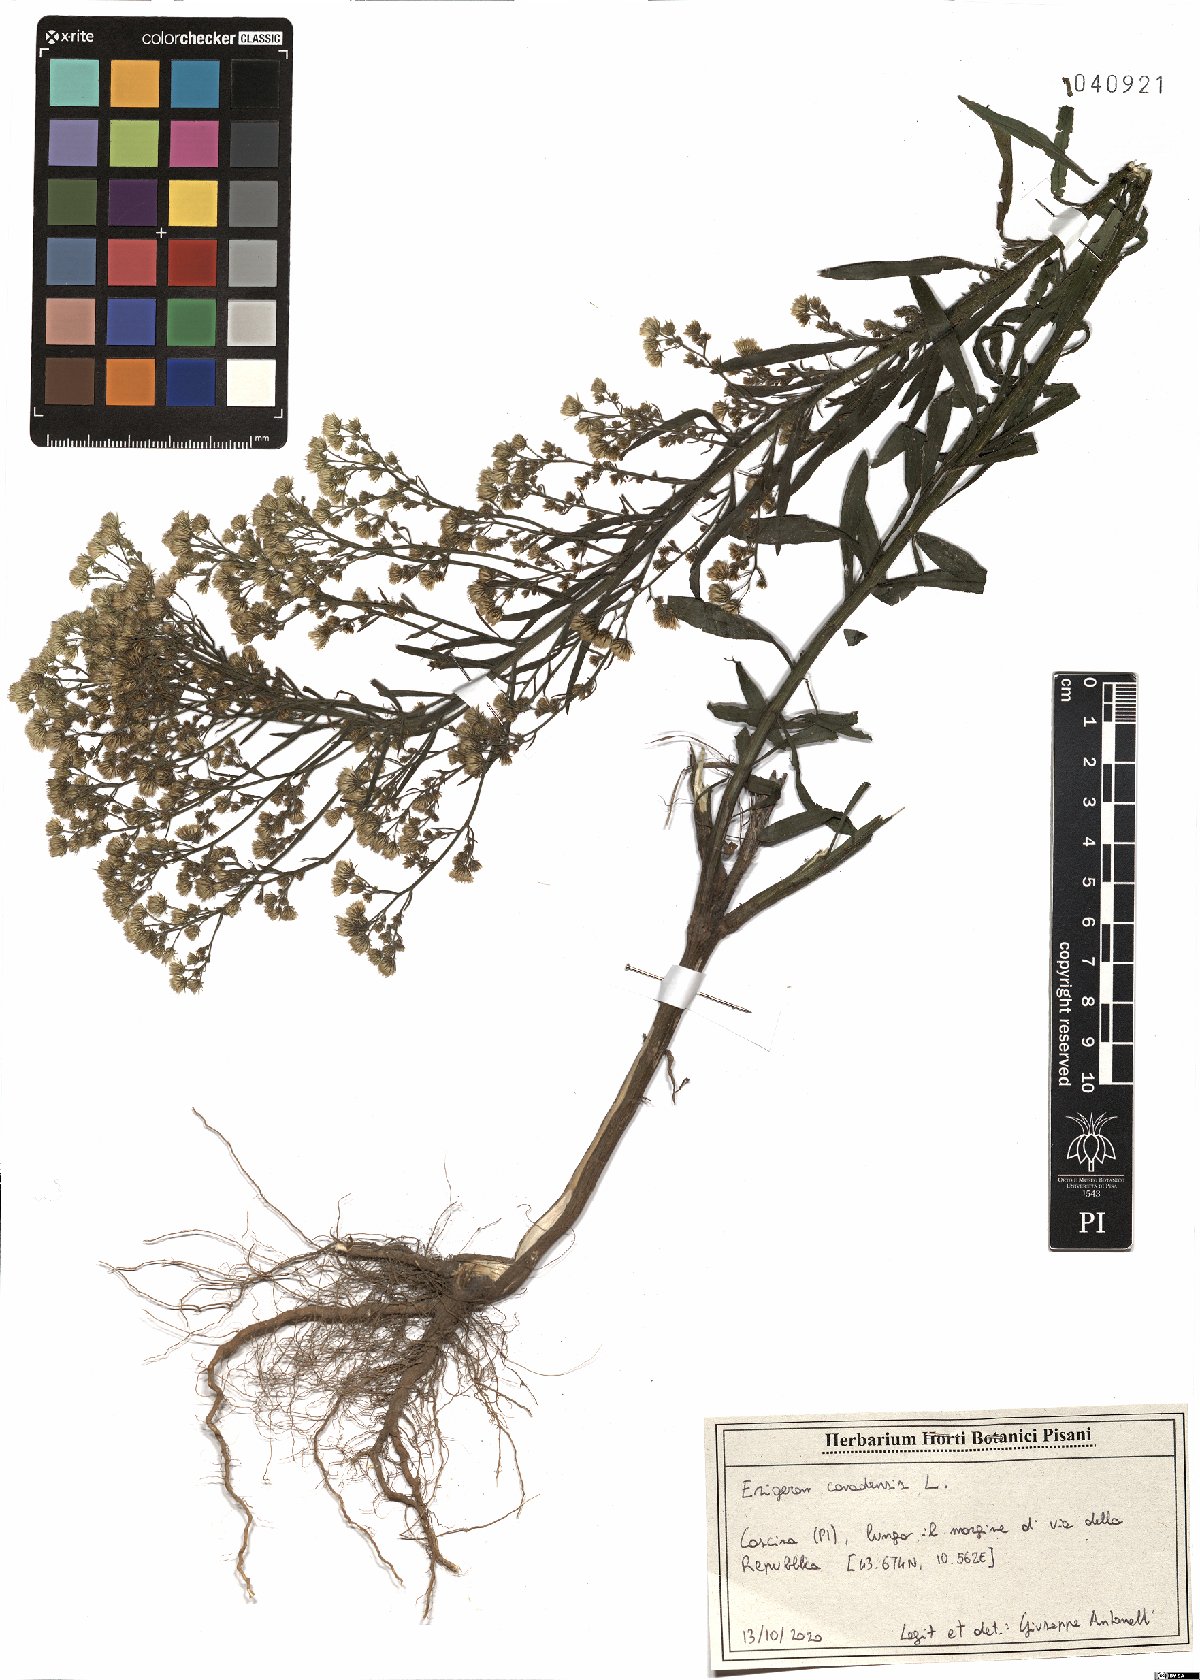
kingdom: Plantae
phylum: Tracheophyta
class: Magnoliopsida
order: Asterales
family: Asteraceae
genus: Erigeron
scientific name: Erigeron canadensis
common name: Canadian fleabane
